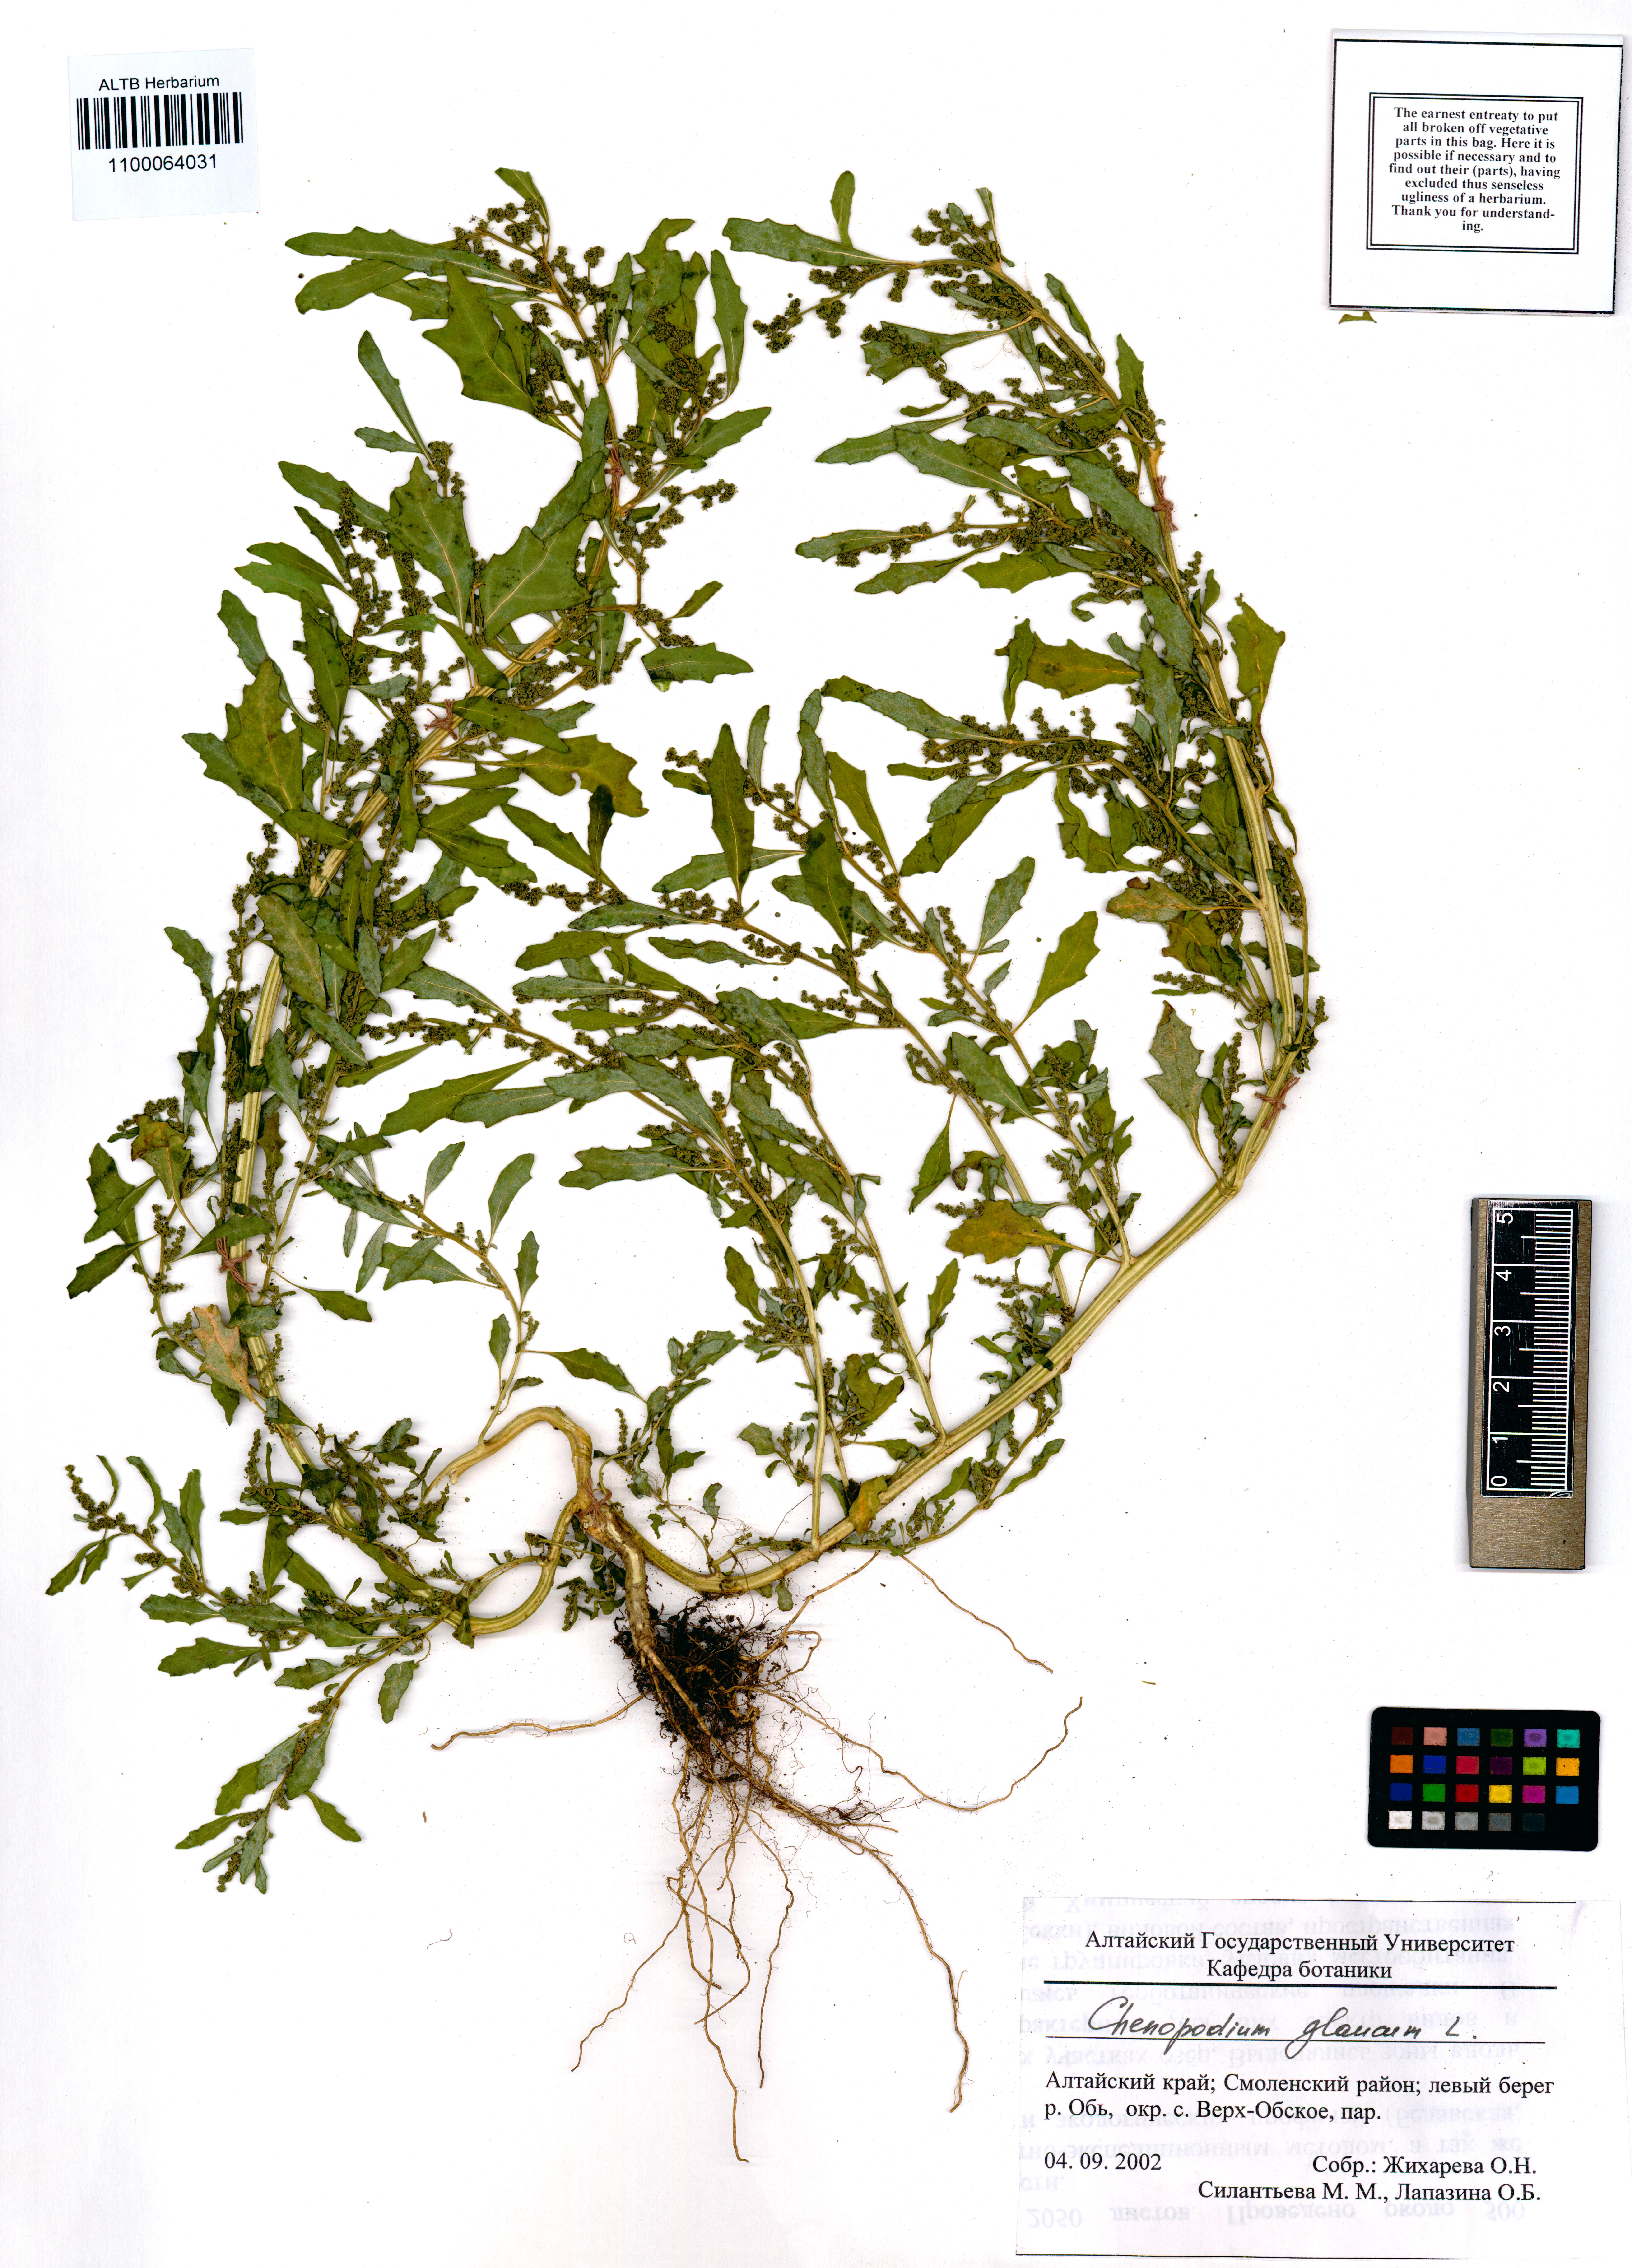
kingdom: Plantae
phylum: Tracheophyta
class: Magnoliopsida
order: Caryophyllales
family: Amaranthaceae
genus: Oxybasis
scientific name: Oxybasis glauca
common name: Glaucous goosefoot
